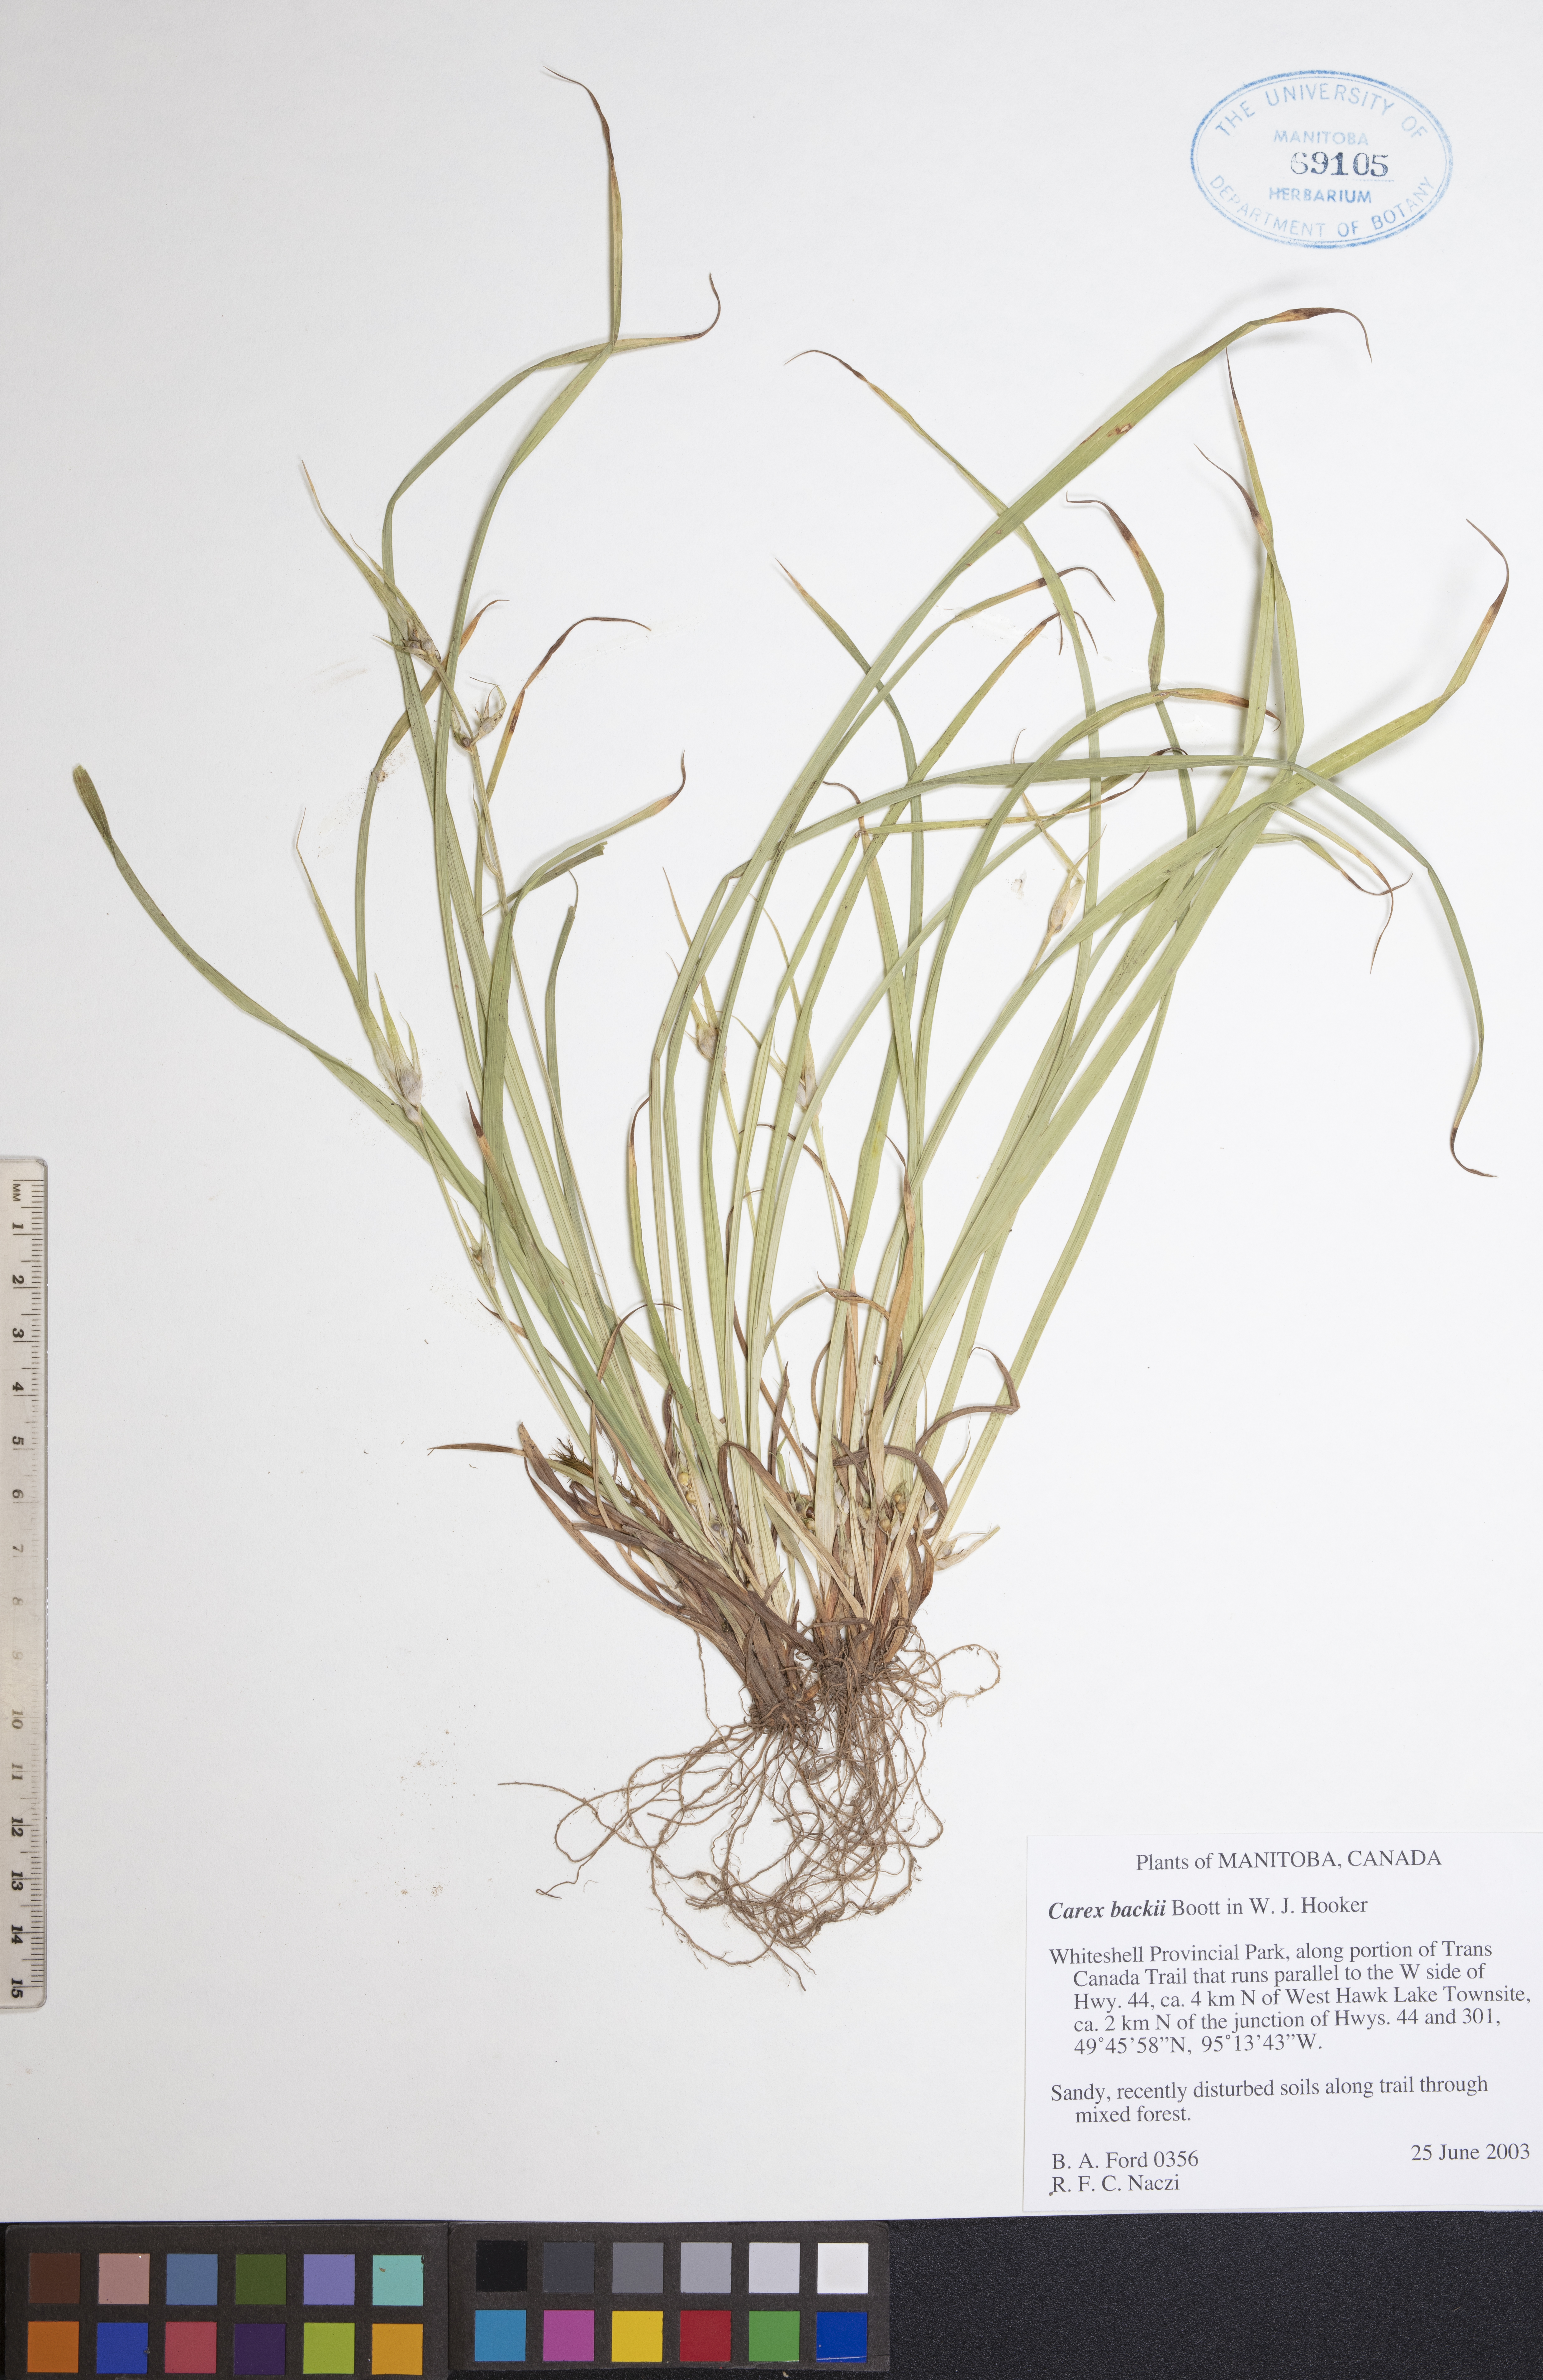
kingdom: Plantae
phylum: Tracheophyta
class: Liliopsida
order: Poales
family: Cyperaceae
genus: Carex
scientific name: Carex backii
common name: Back's sedge
